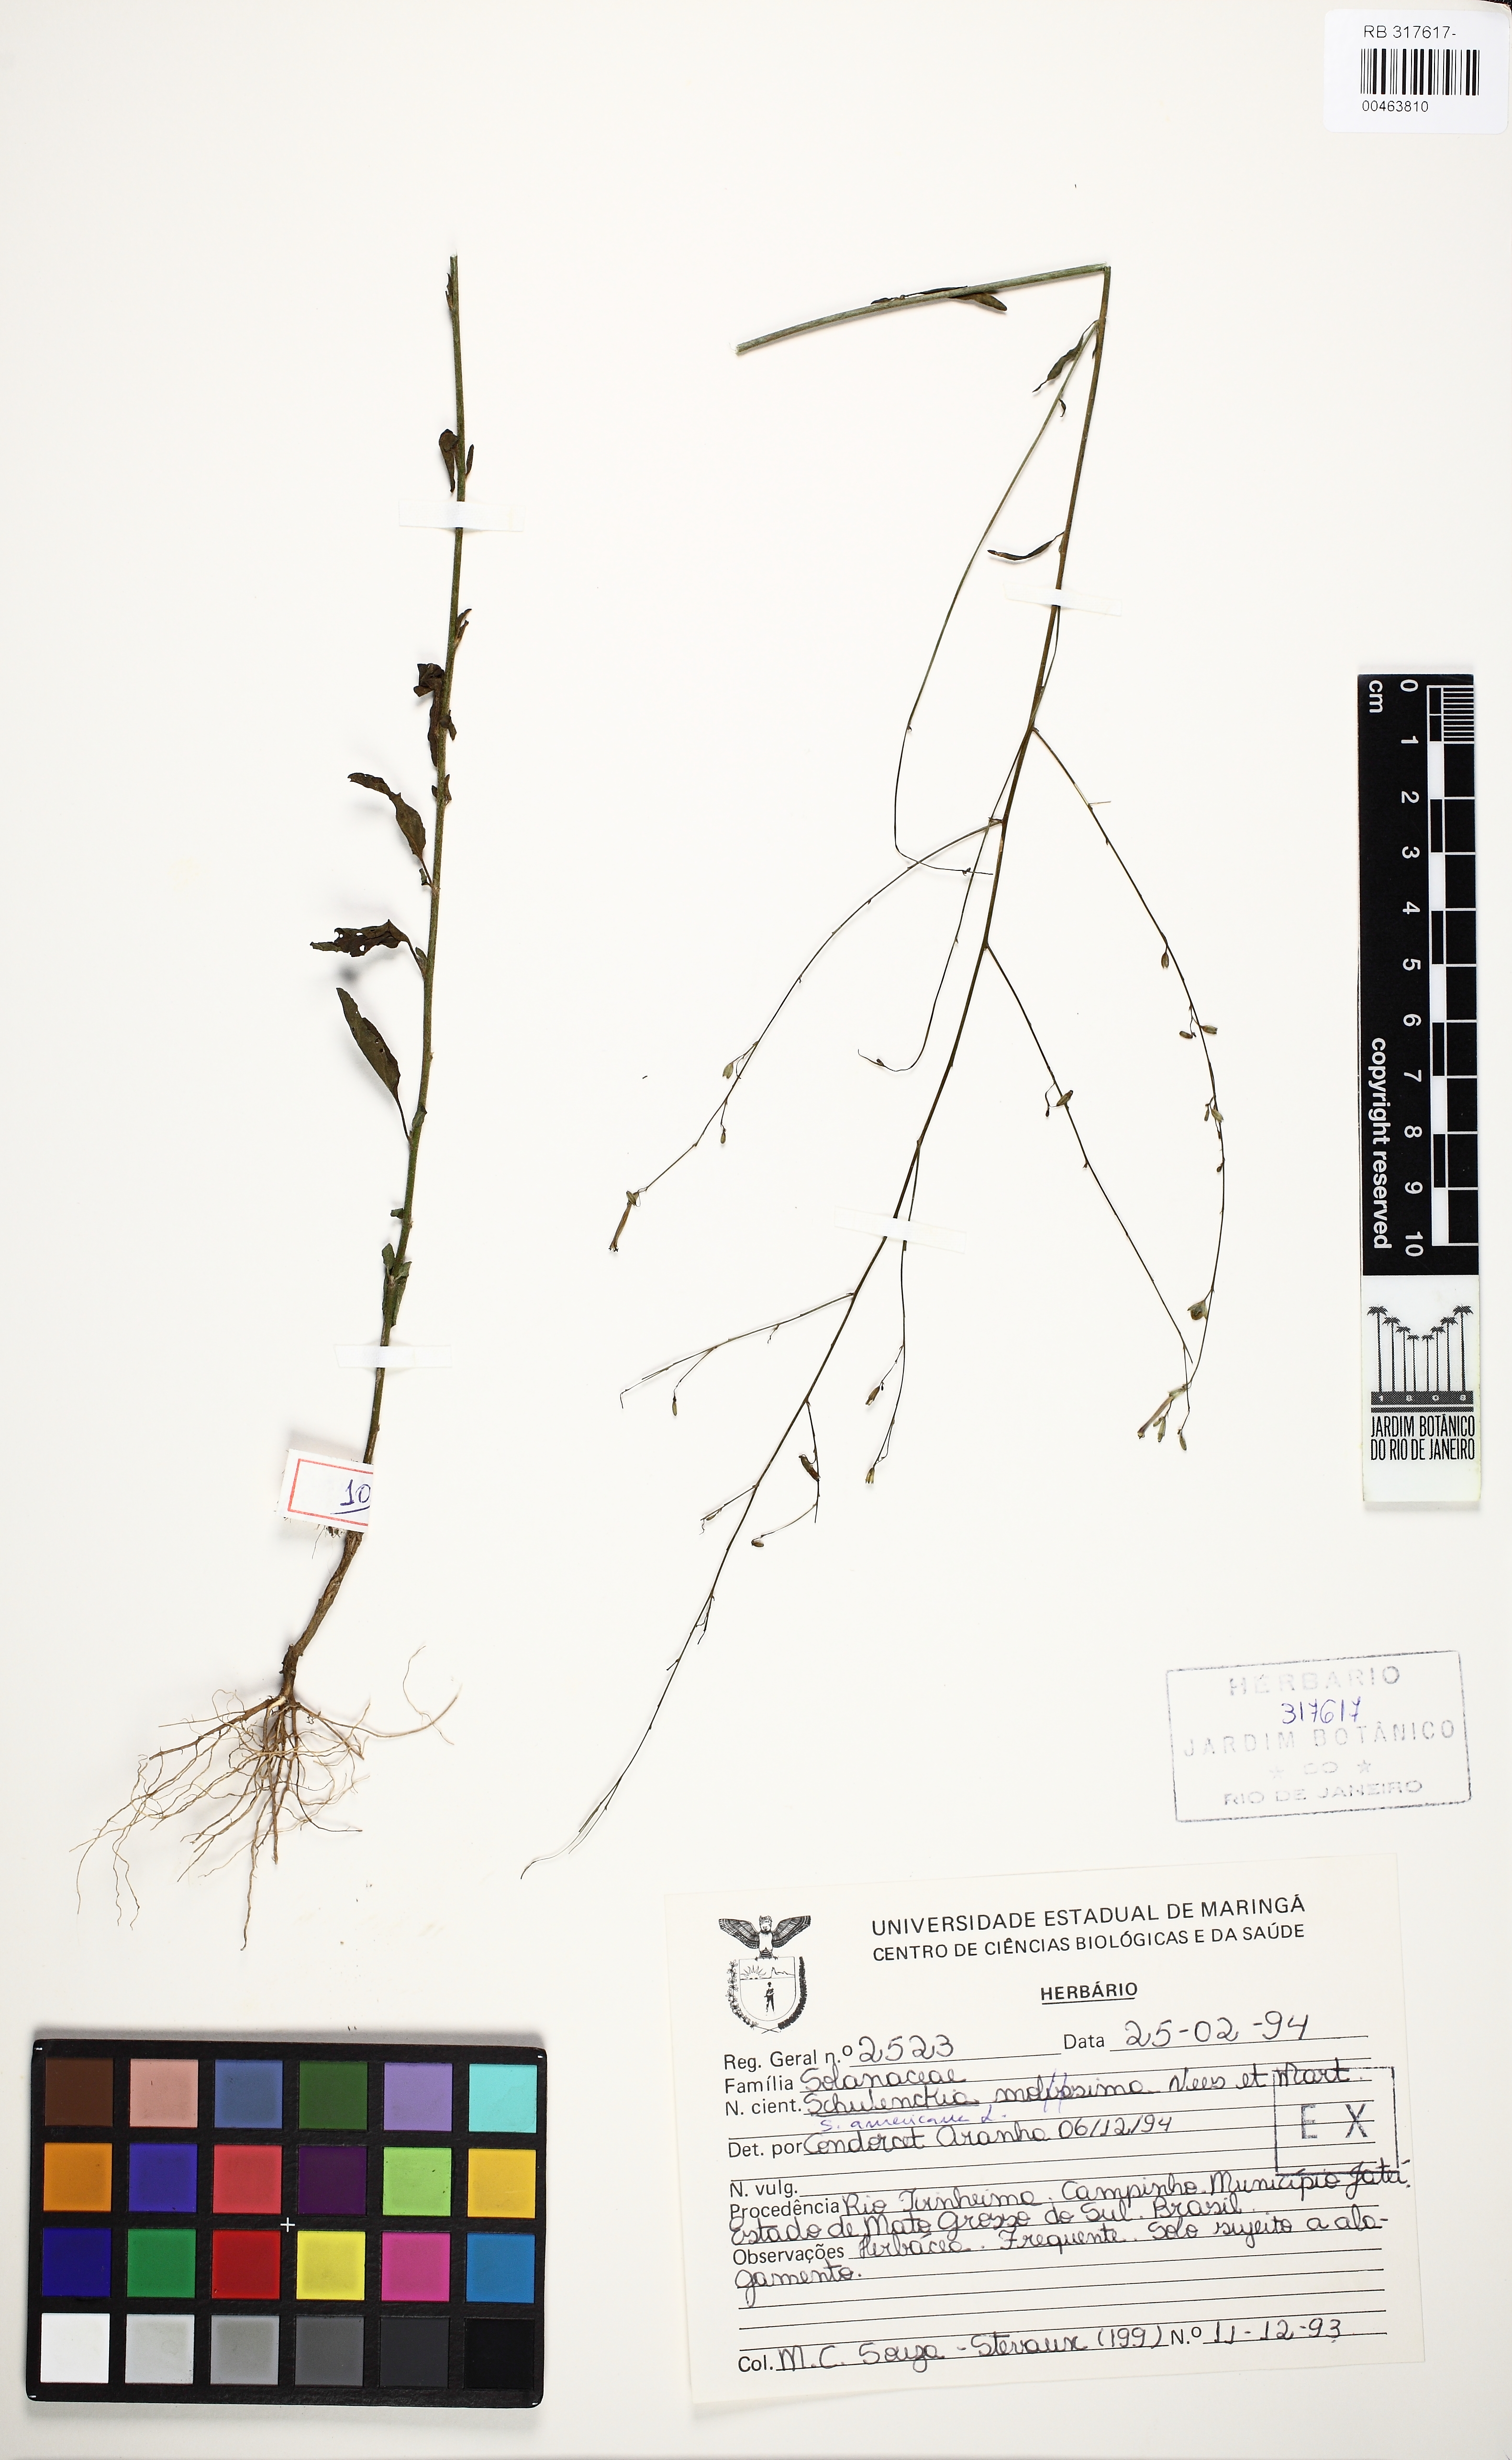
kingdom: Plantae
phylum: Tracheophyta
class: Magnoliopsida
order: Solanales
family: Solanaceae
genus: Schwenckia
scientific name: Schwenckia novaveneciana
